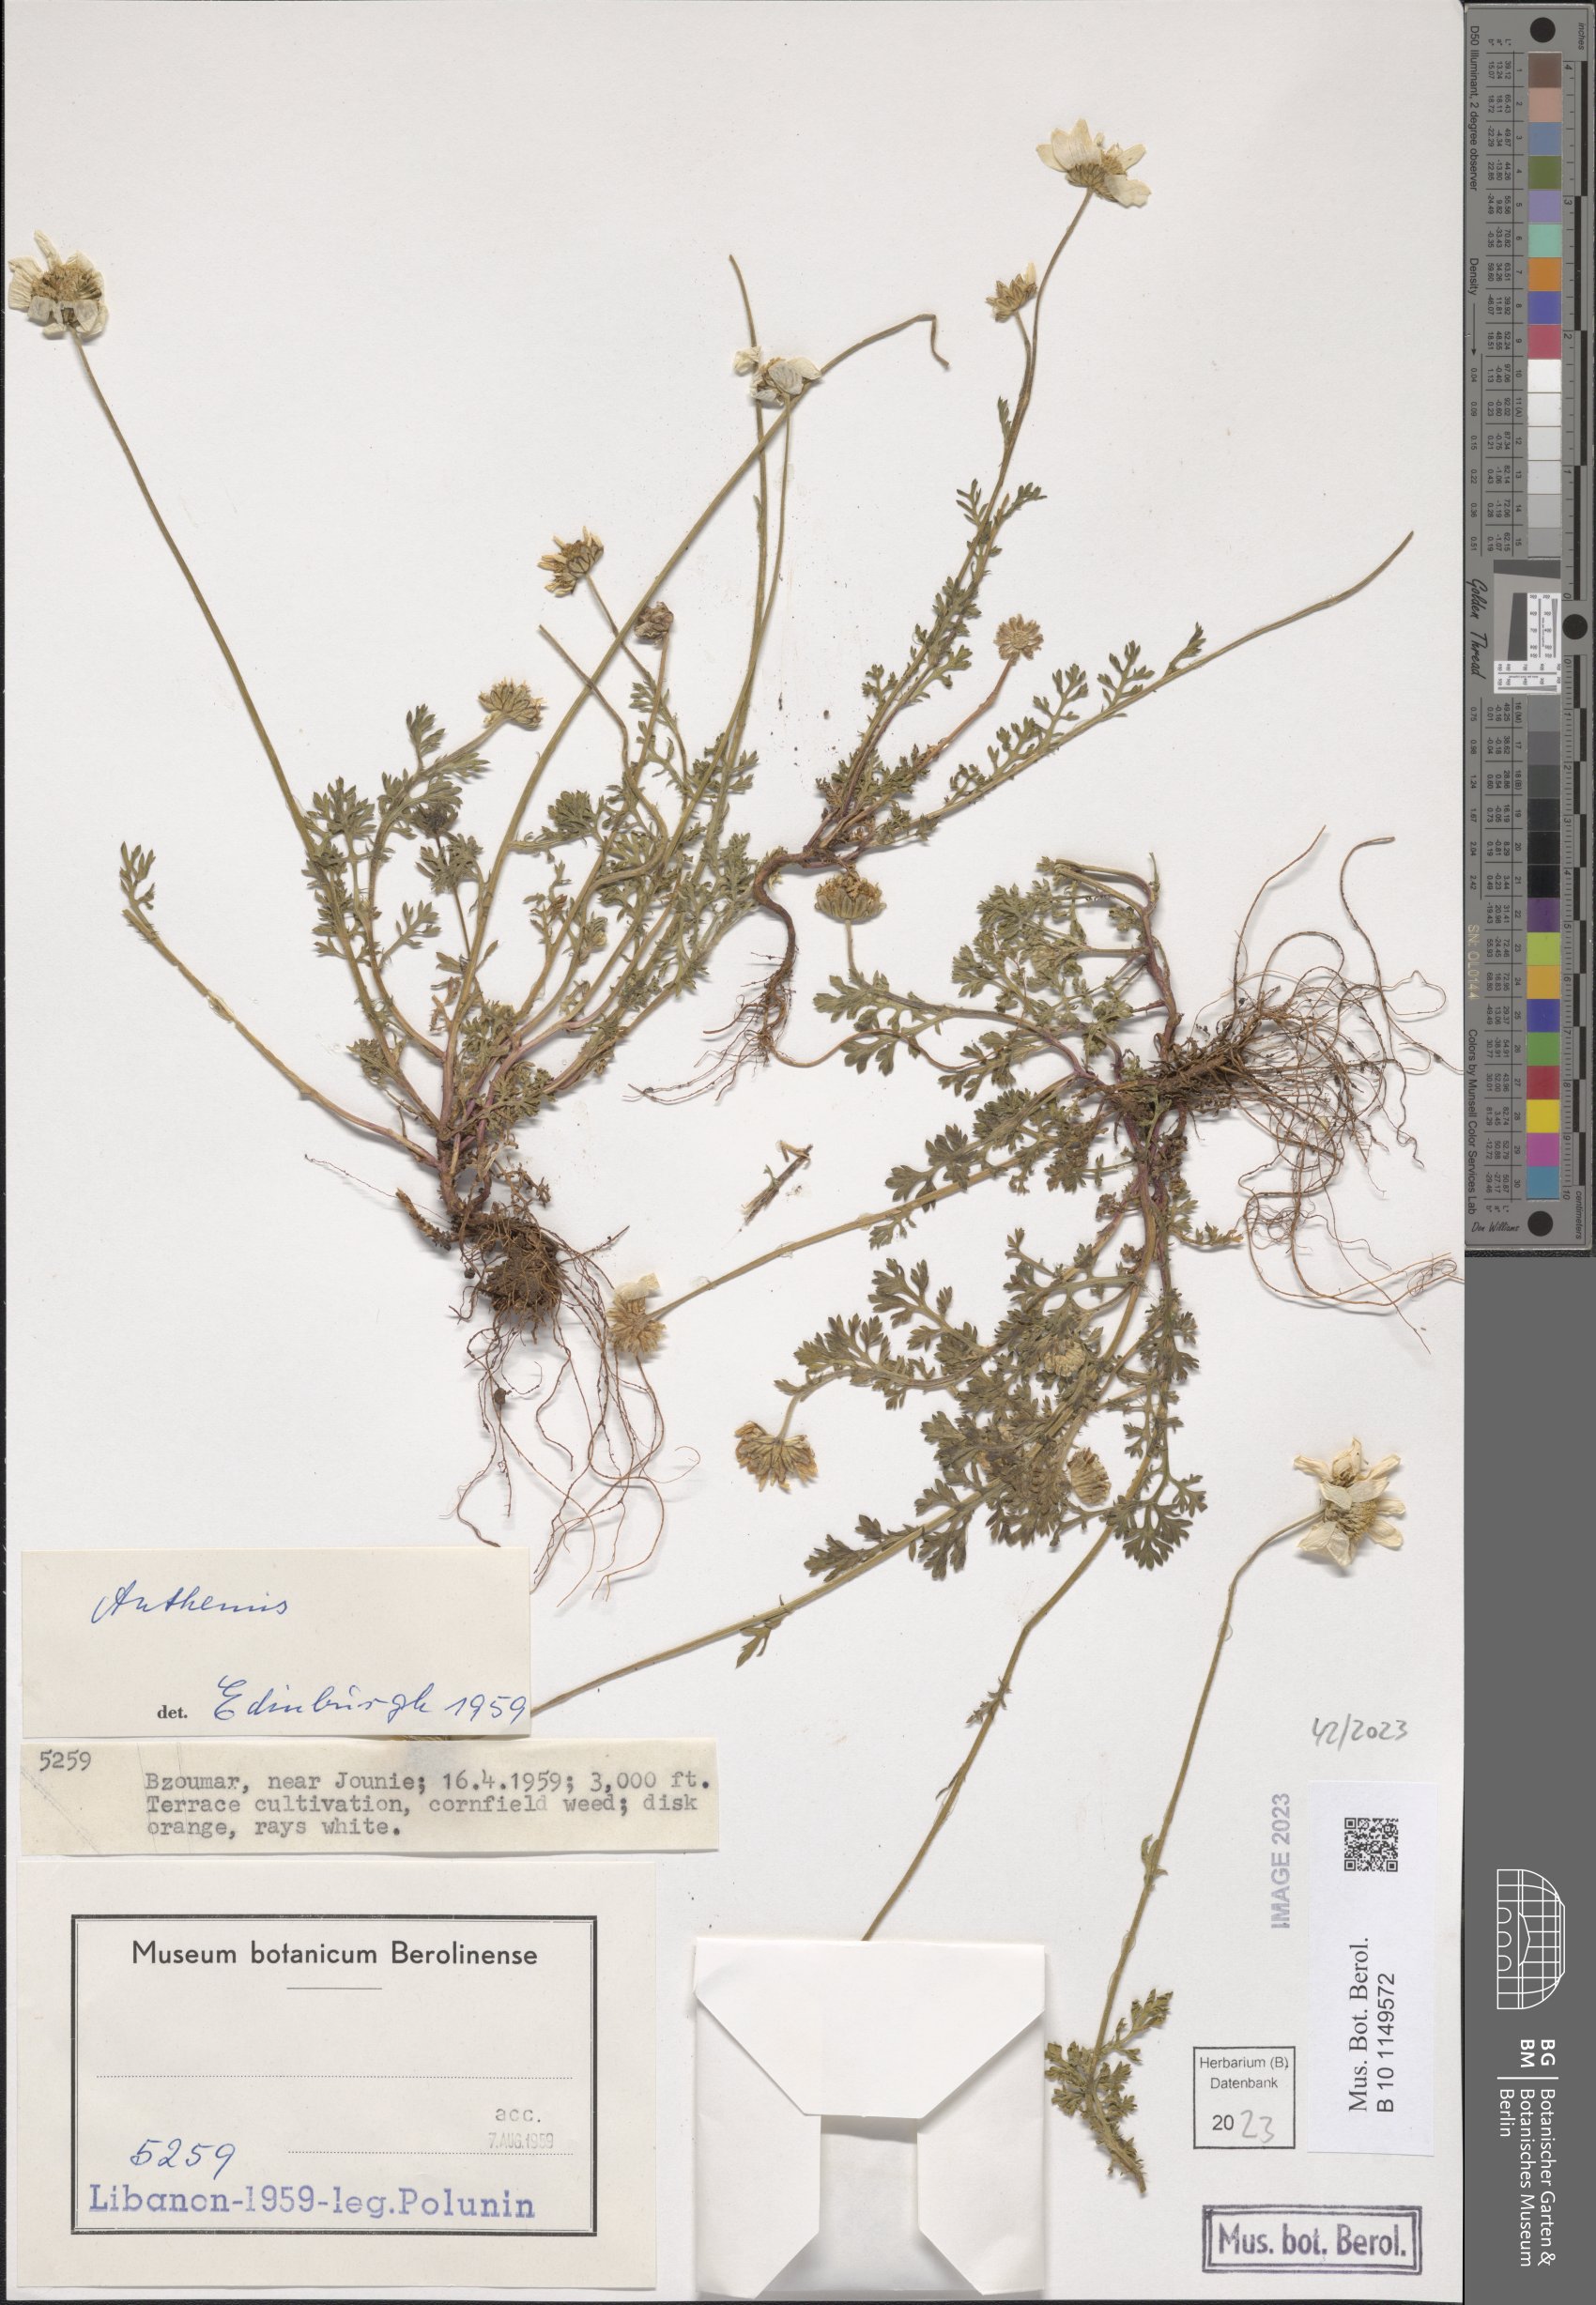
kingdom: Plantae
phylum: Tracheophyta
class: Magnoliopsida
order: Asterales
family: Asteraceae
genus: Anthemis
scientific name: Anthemis
